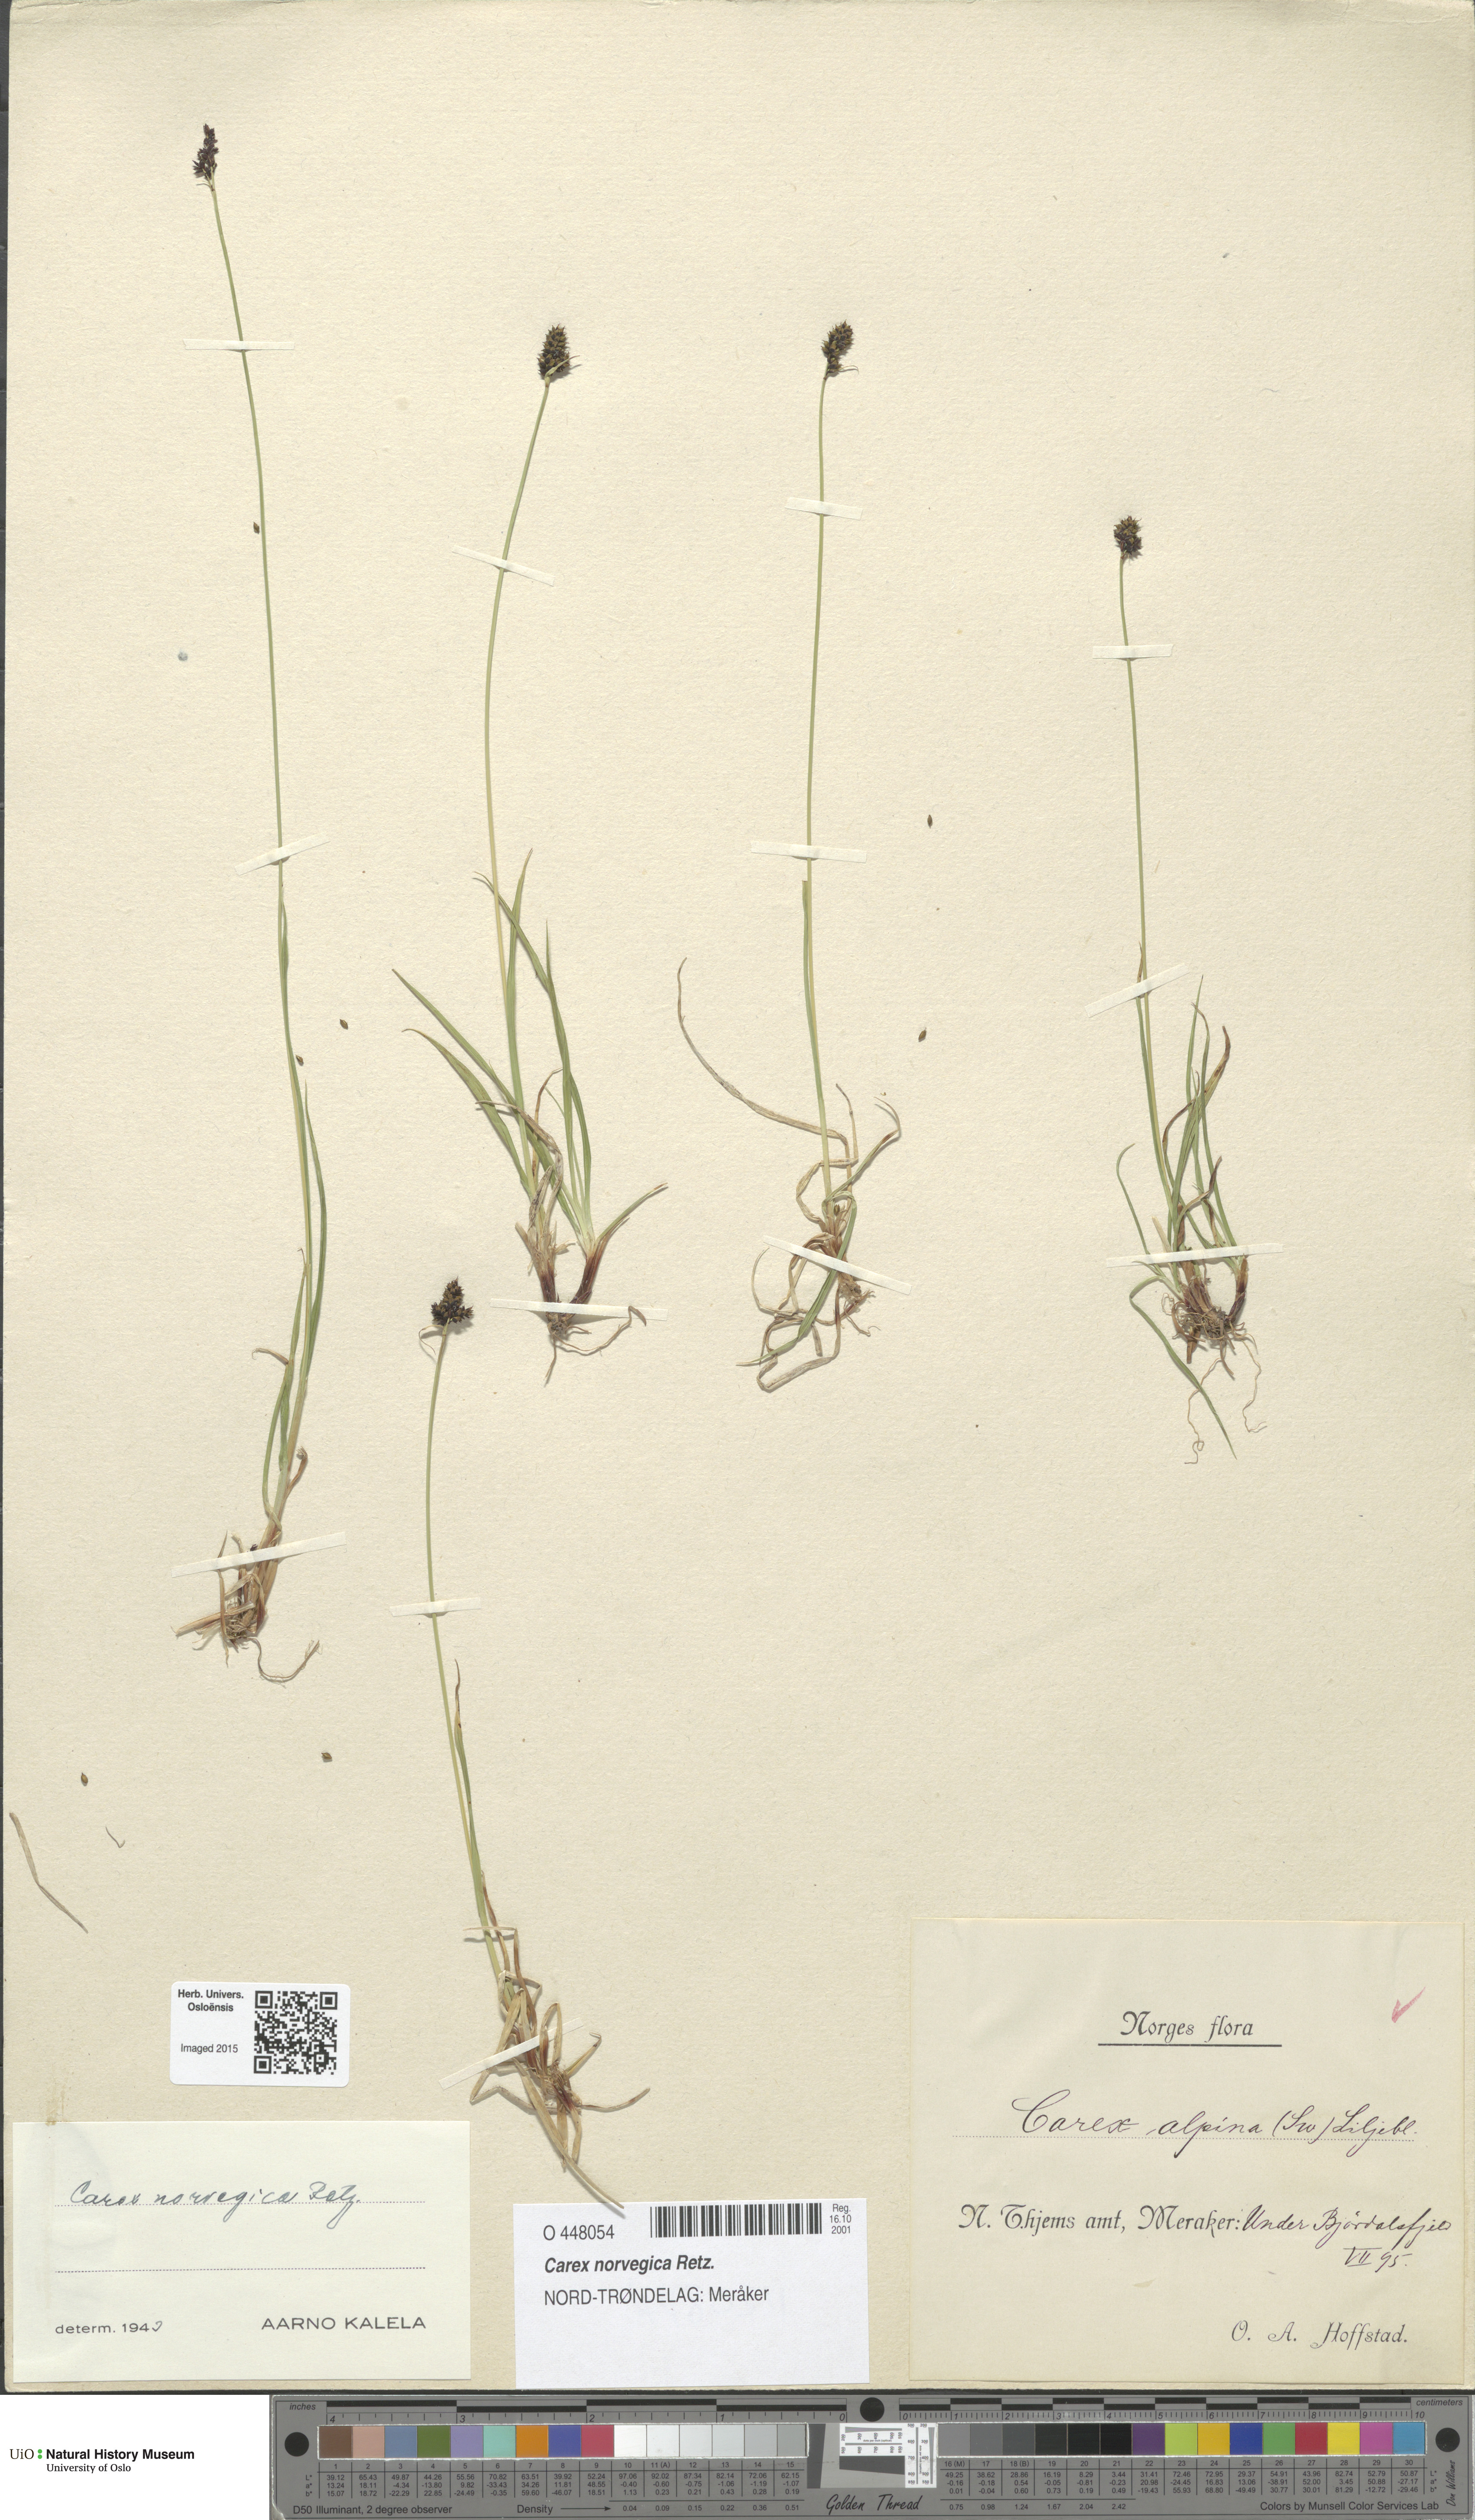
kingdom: Plantae
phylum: Tracheophyta
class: Liliopsida
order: Poales
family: Cyperaceae
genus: Carex
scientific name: Carex norvegica
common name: Close-headed alpine-sedge
